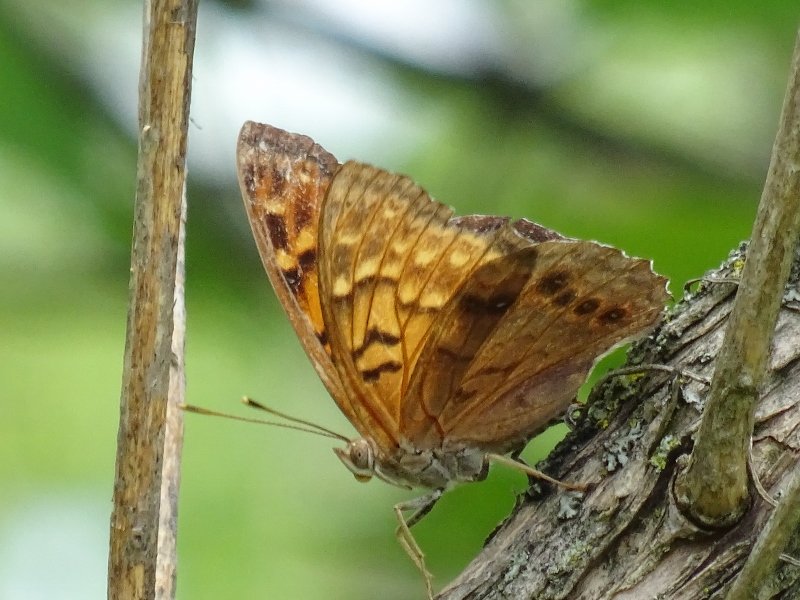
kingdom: Animalia
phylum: Arthropoda
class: Insecta
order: Lepidoptera
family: Nymphalidae
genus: Asterocampa
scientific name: Asterocampa clyton
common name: Tawny Emperor
